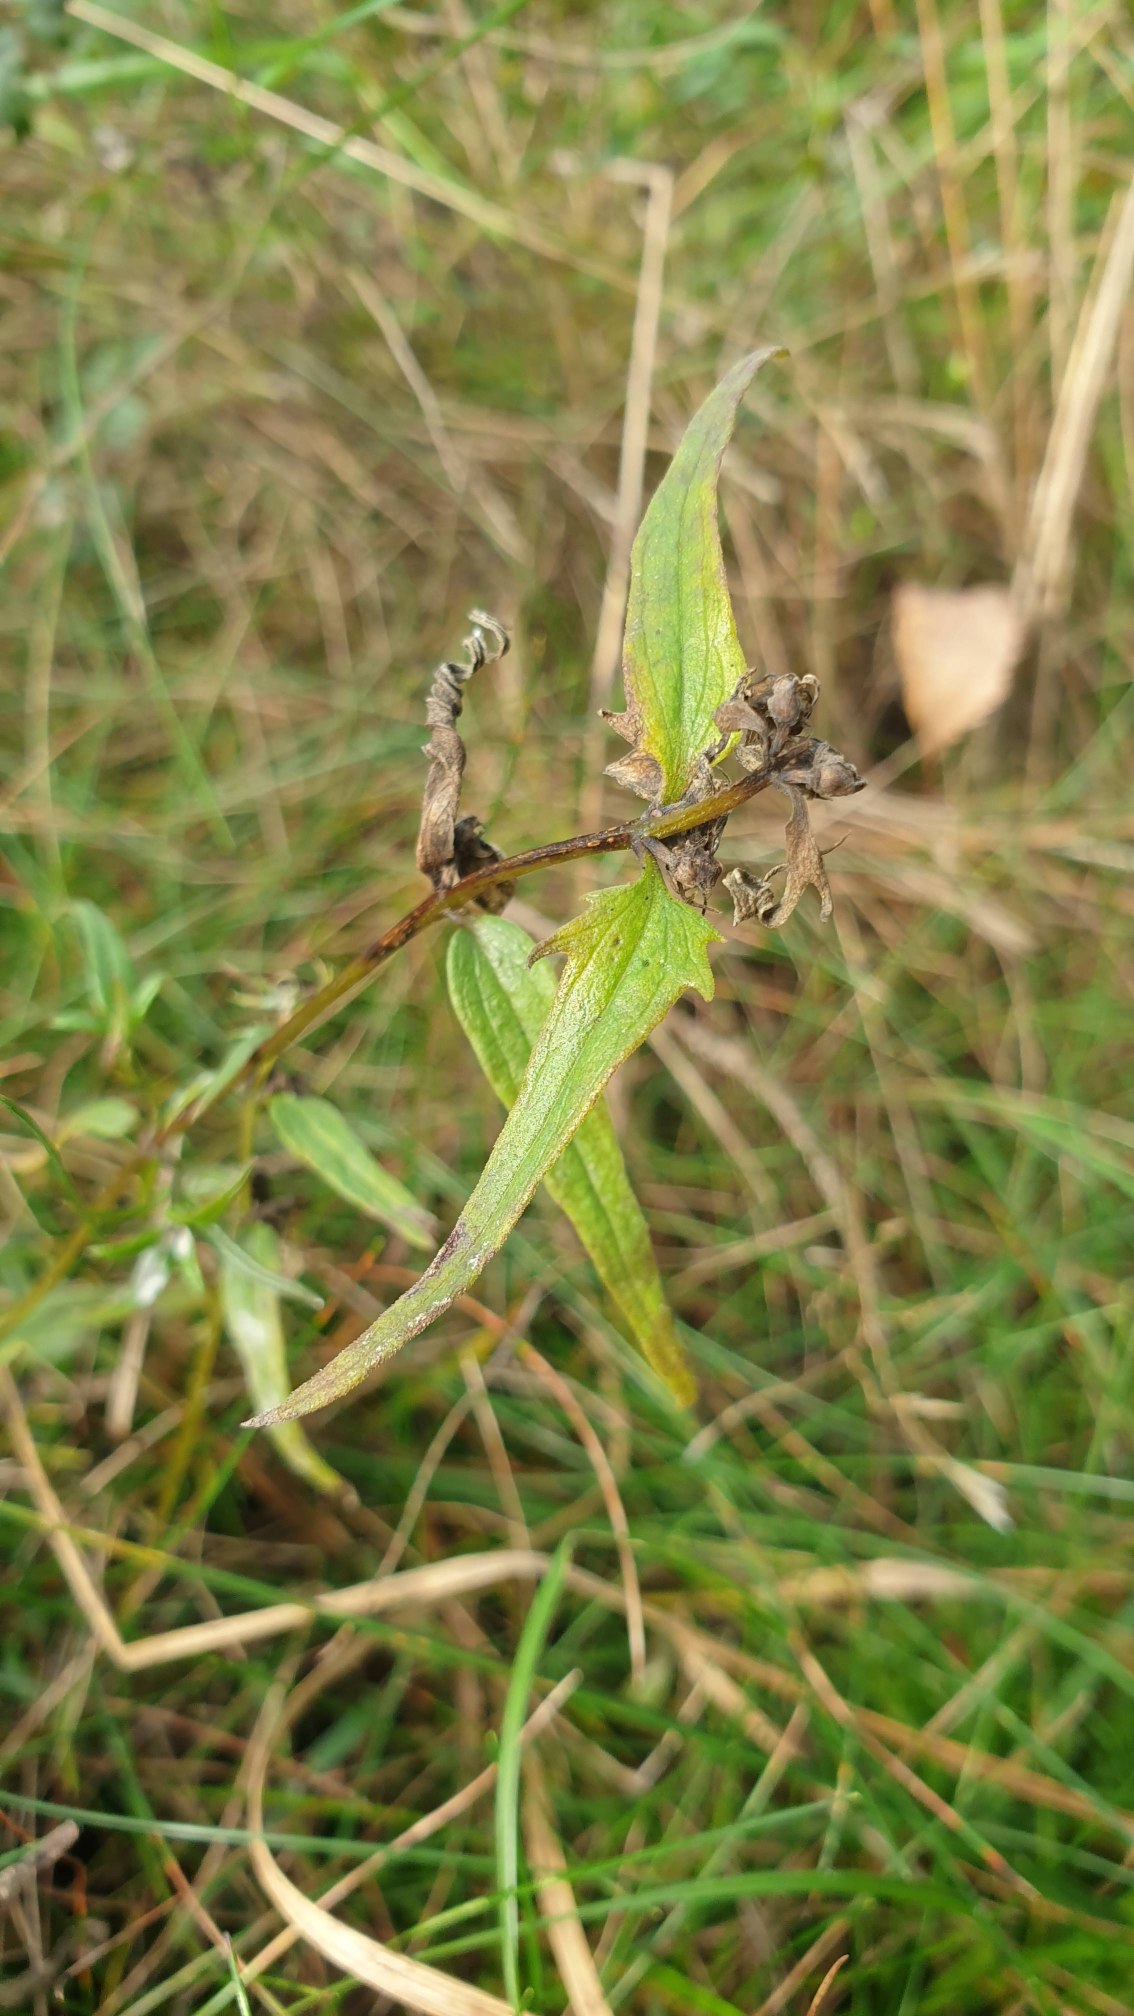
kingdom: Plantae
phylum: Tracheophyta
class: Magnoliopsida
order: Lamiales
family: Orobanchaceae
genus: Melampyrum
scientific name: Melampyrum pratense
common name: Almindelig kohvede
